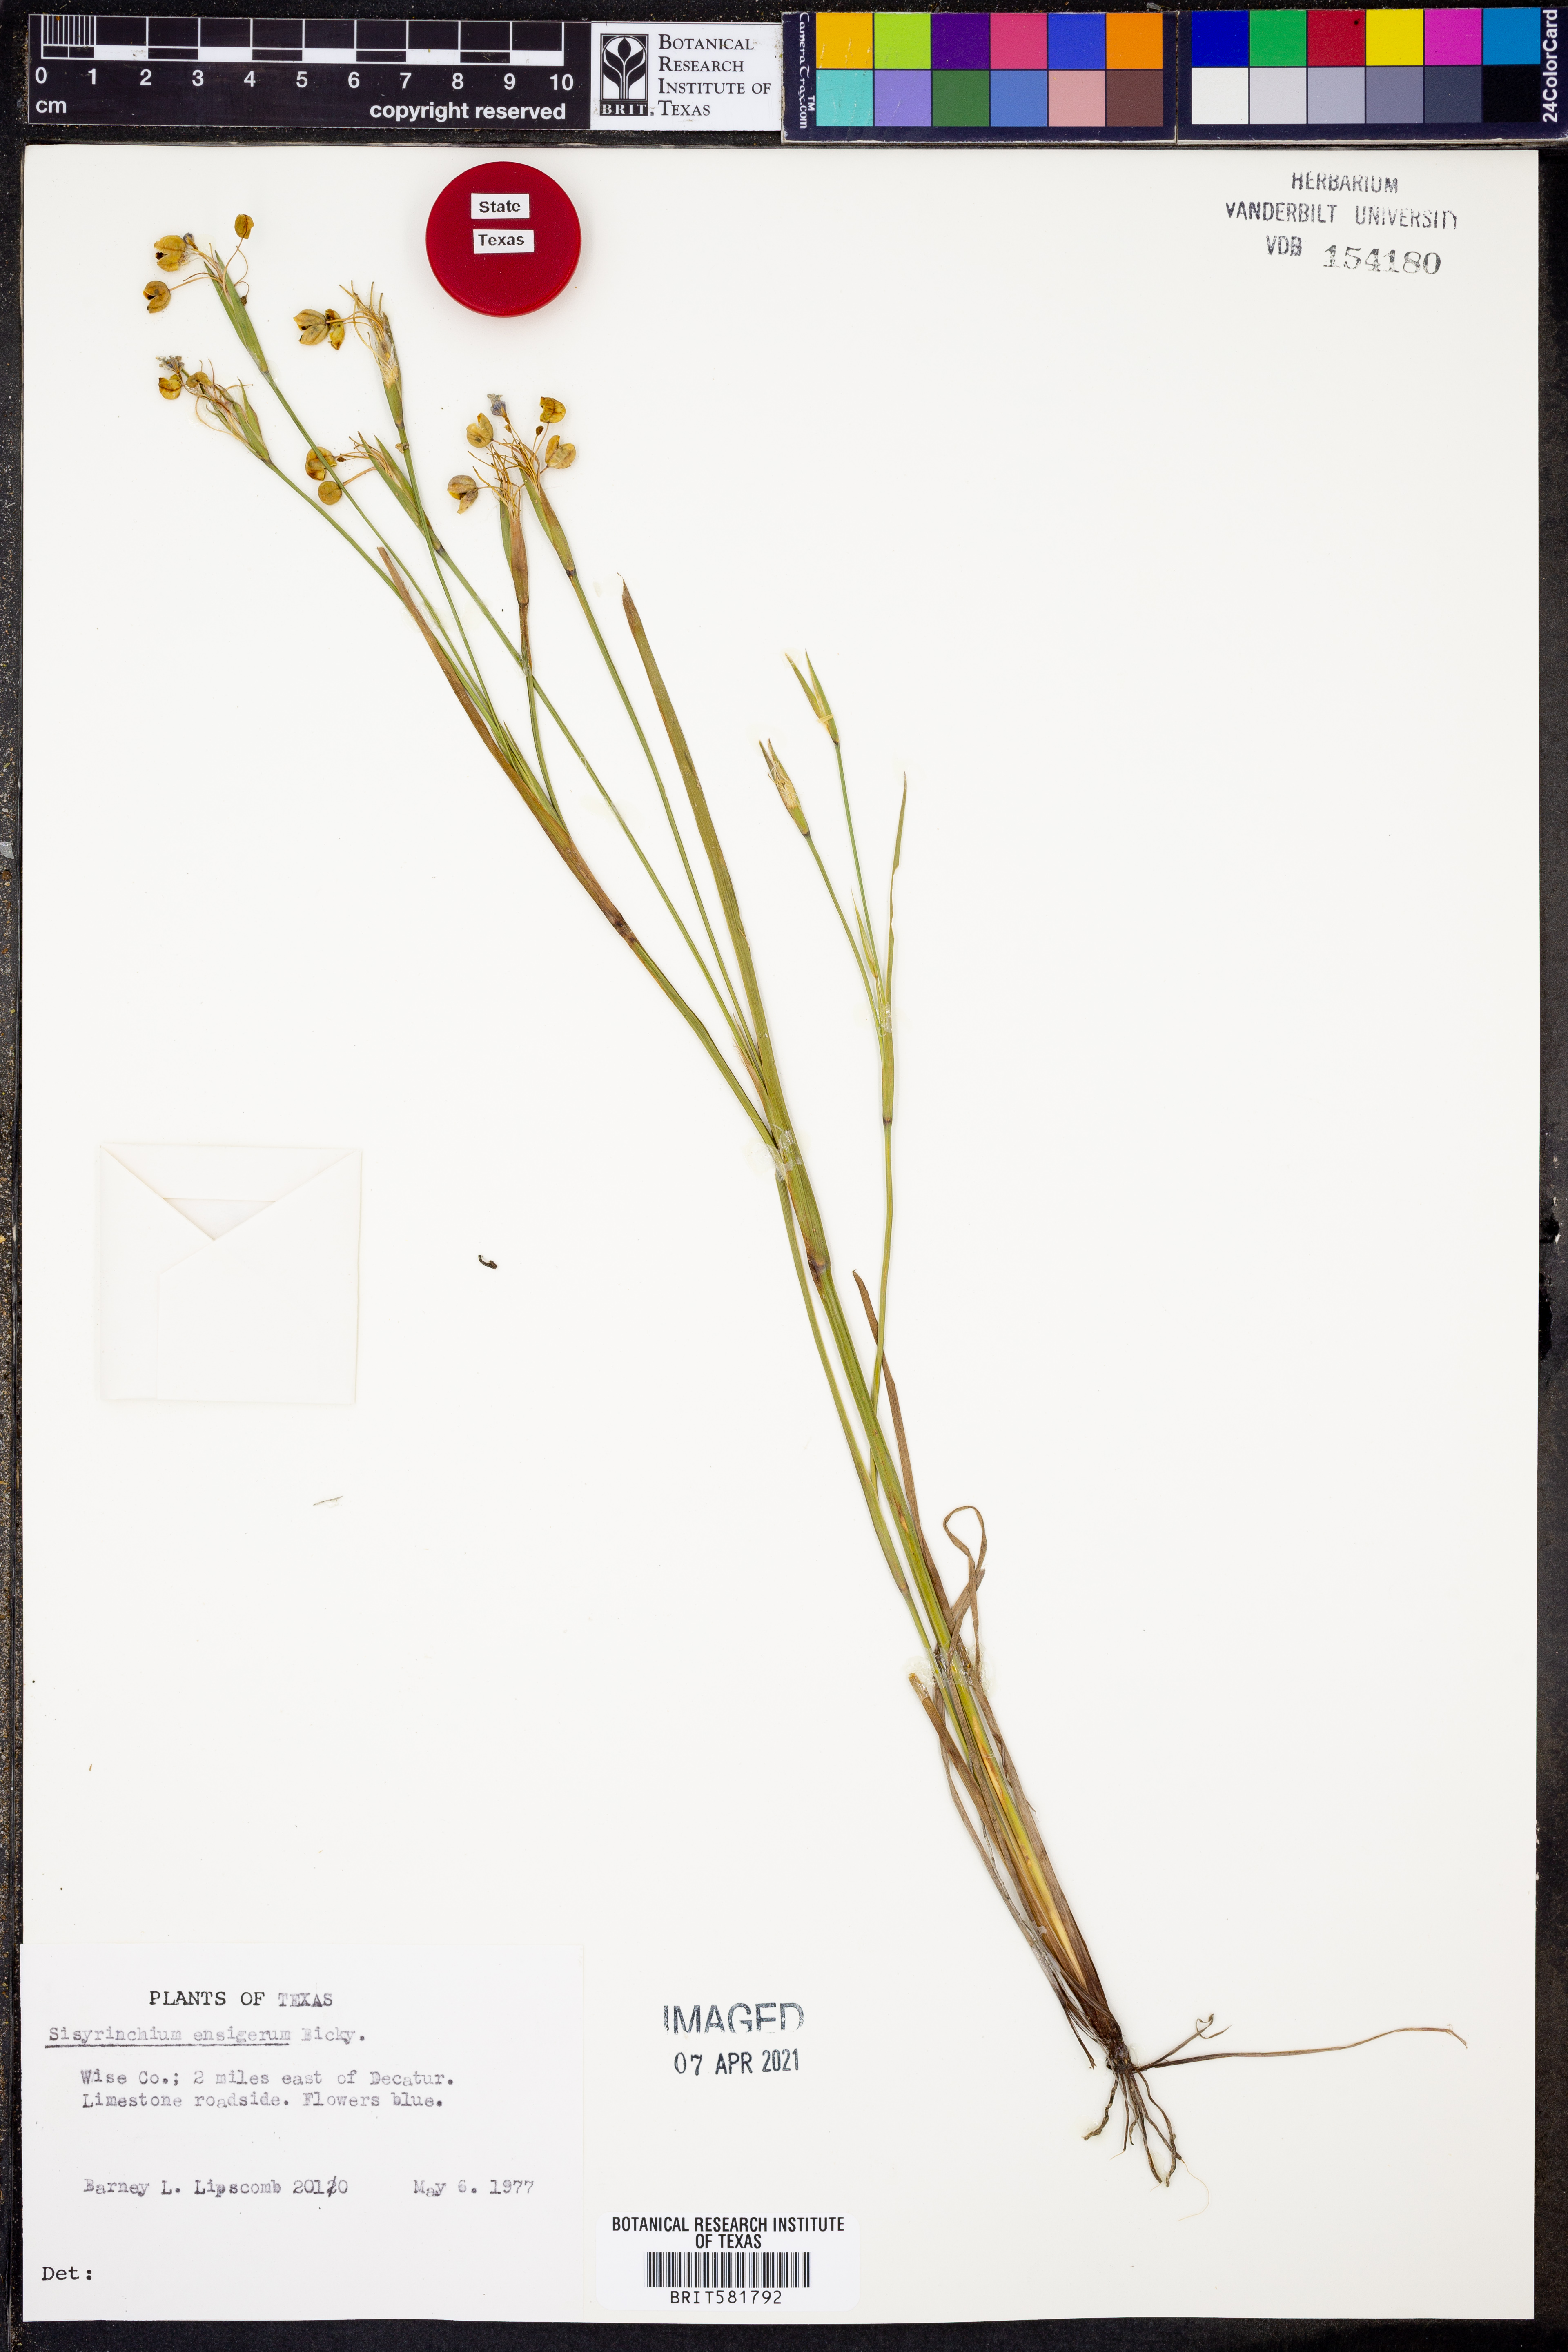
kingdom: Plantae
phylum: Tracheophyta
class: Liliopsida
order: Asparagales
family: Iridaceae
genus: Sisyrinchium
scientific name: Sisyrinchium ensigerum
